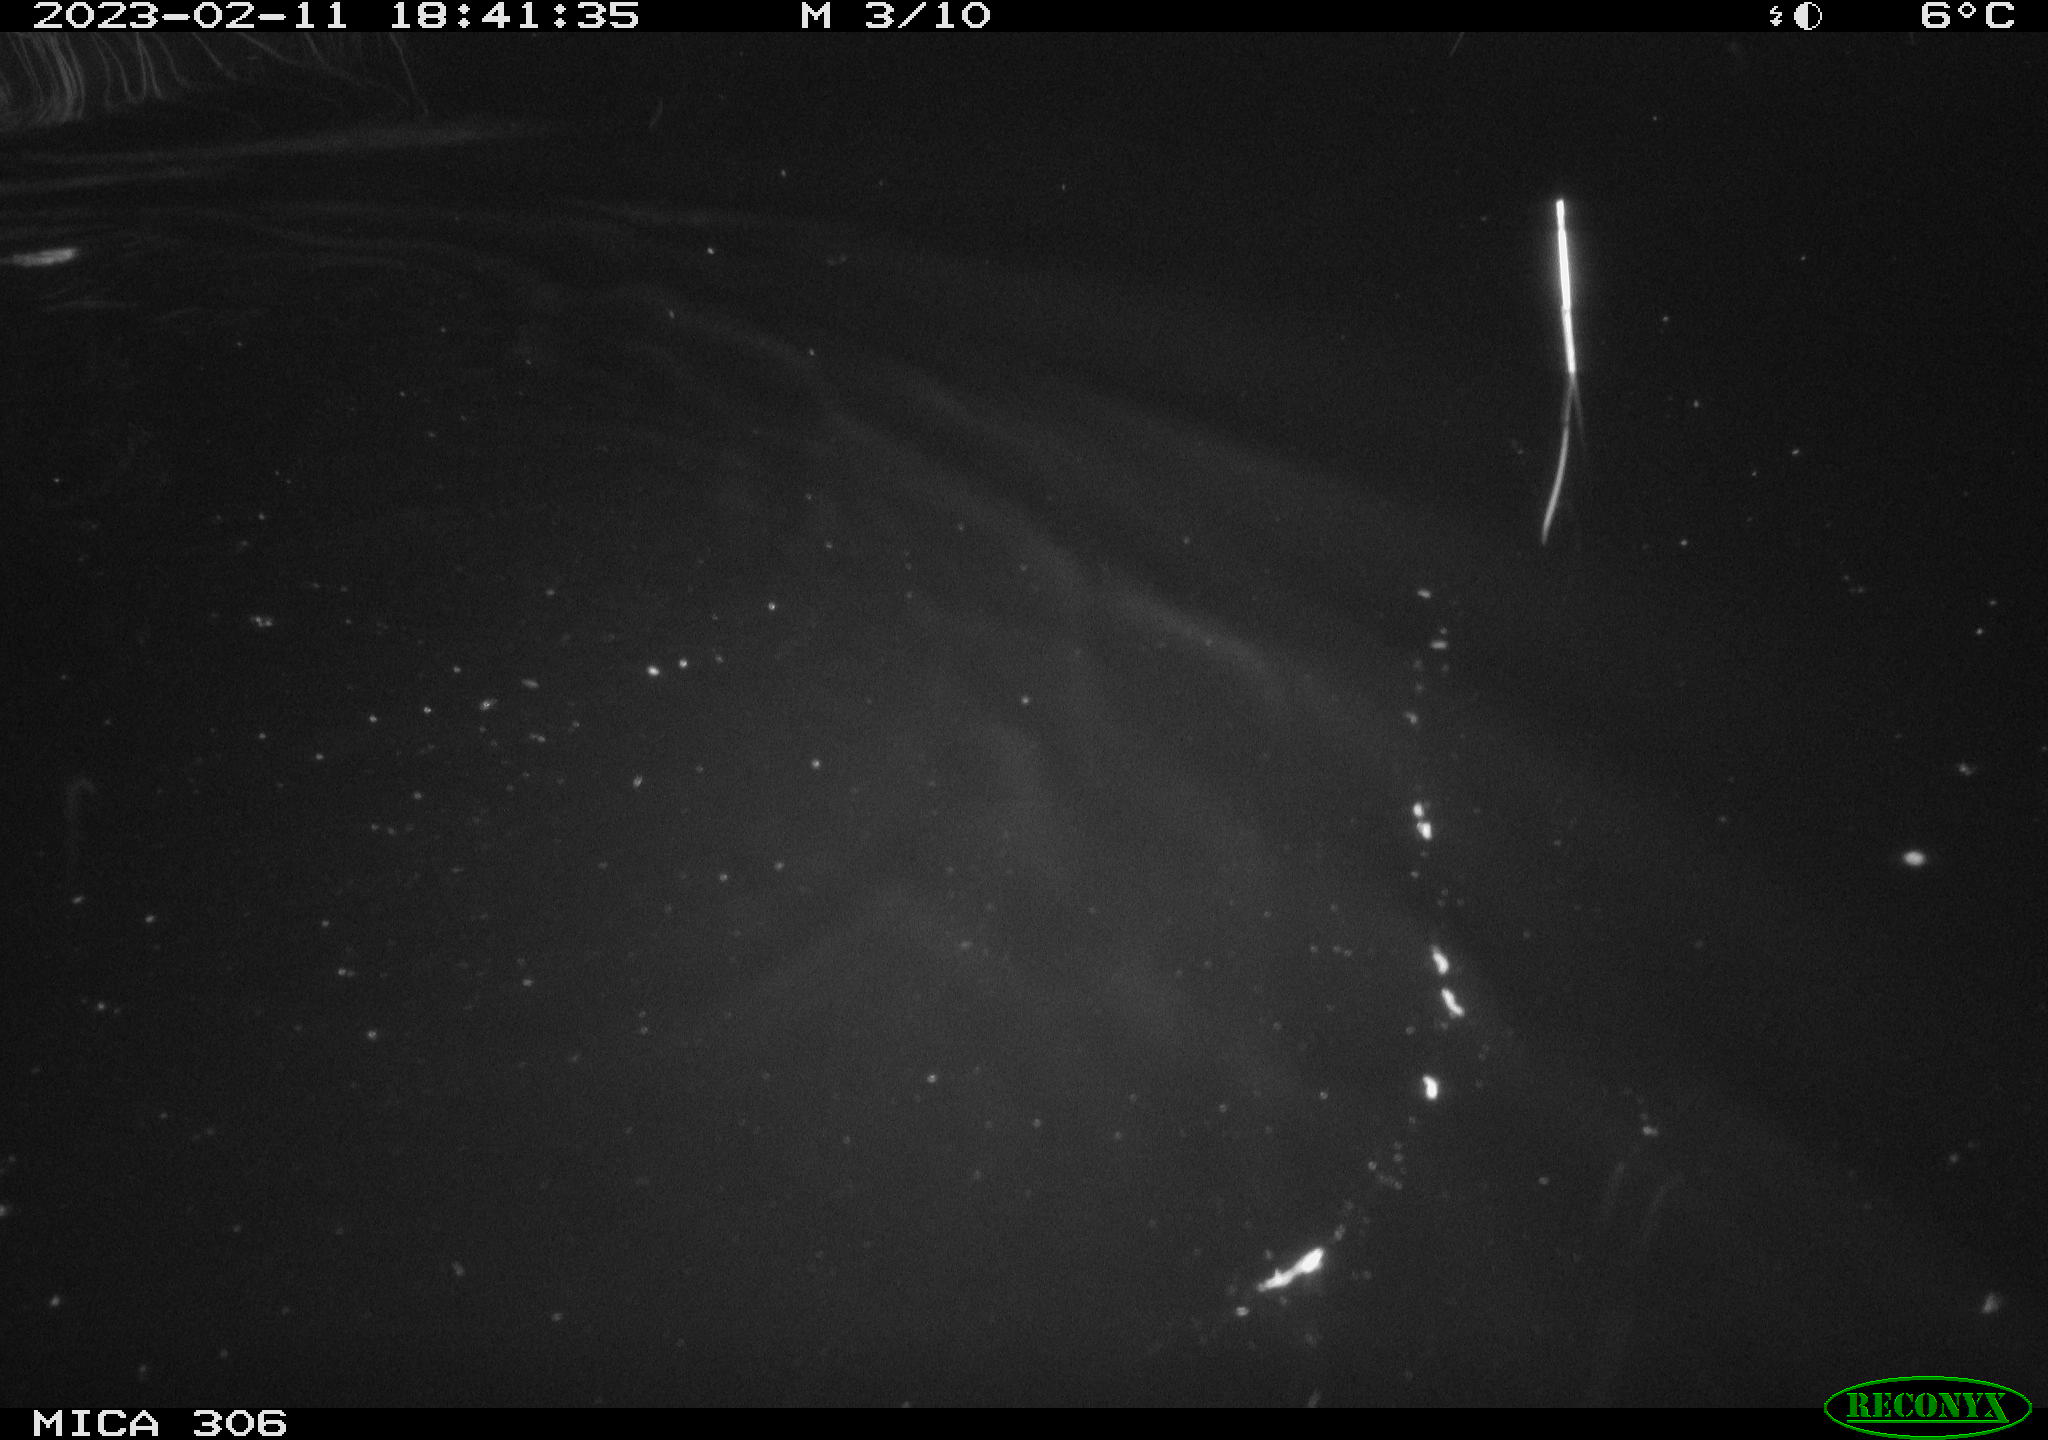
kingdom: Animalia
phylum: Chordata
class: Mammalia
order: Rodentia
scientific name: Rodentia
